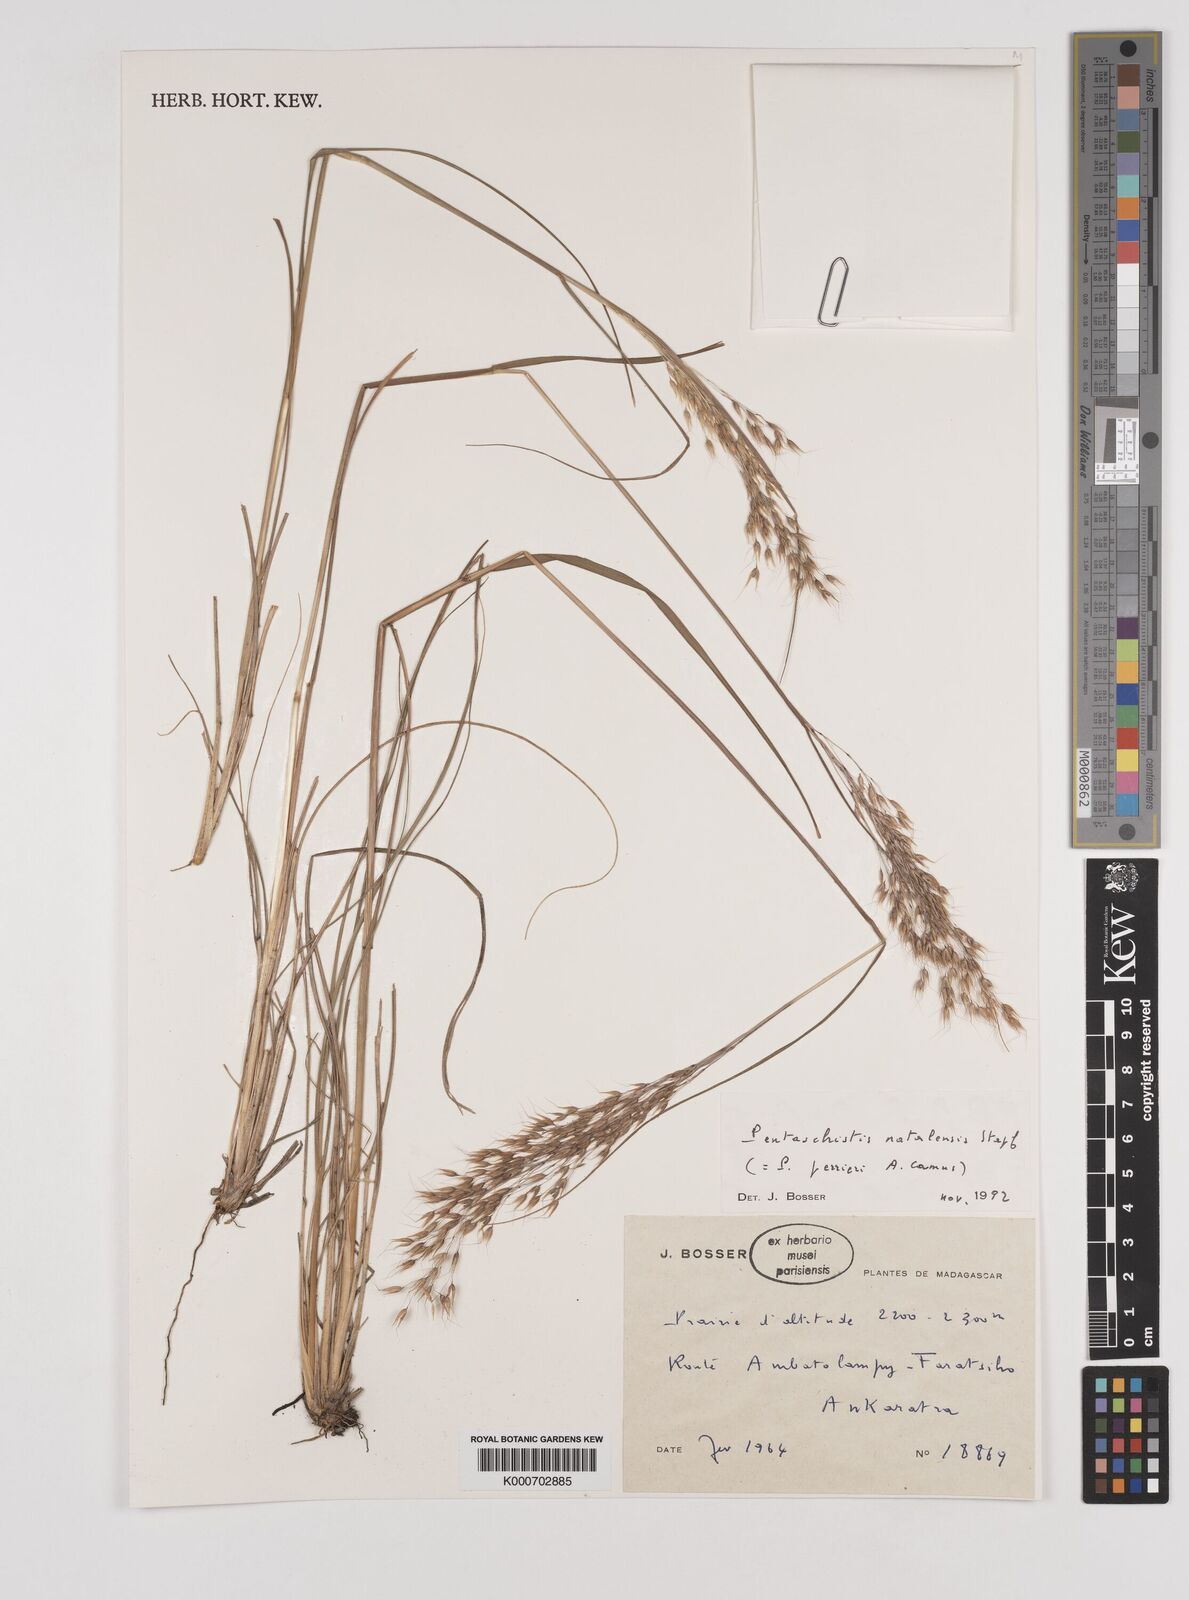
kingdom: Plantae
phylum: Tracheophyta
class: Liliopsida
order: Poales
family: Poaceae
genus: Pentameris
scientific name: Pentameris natalensis
